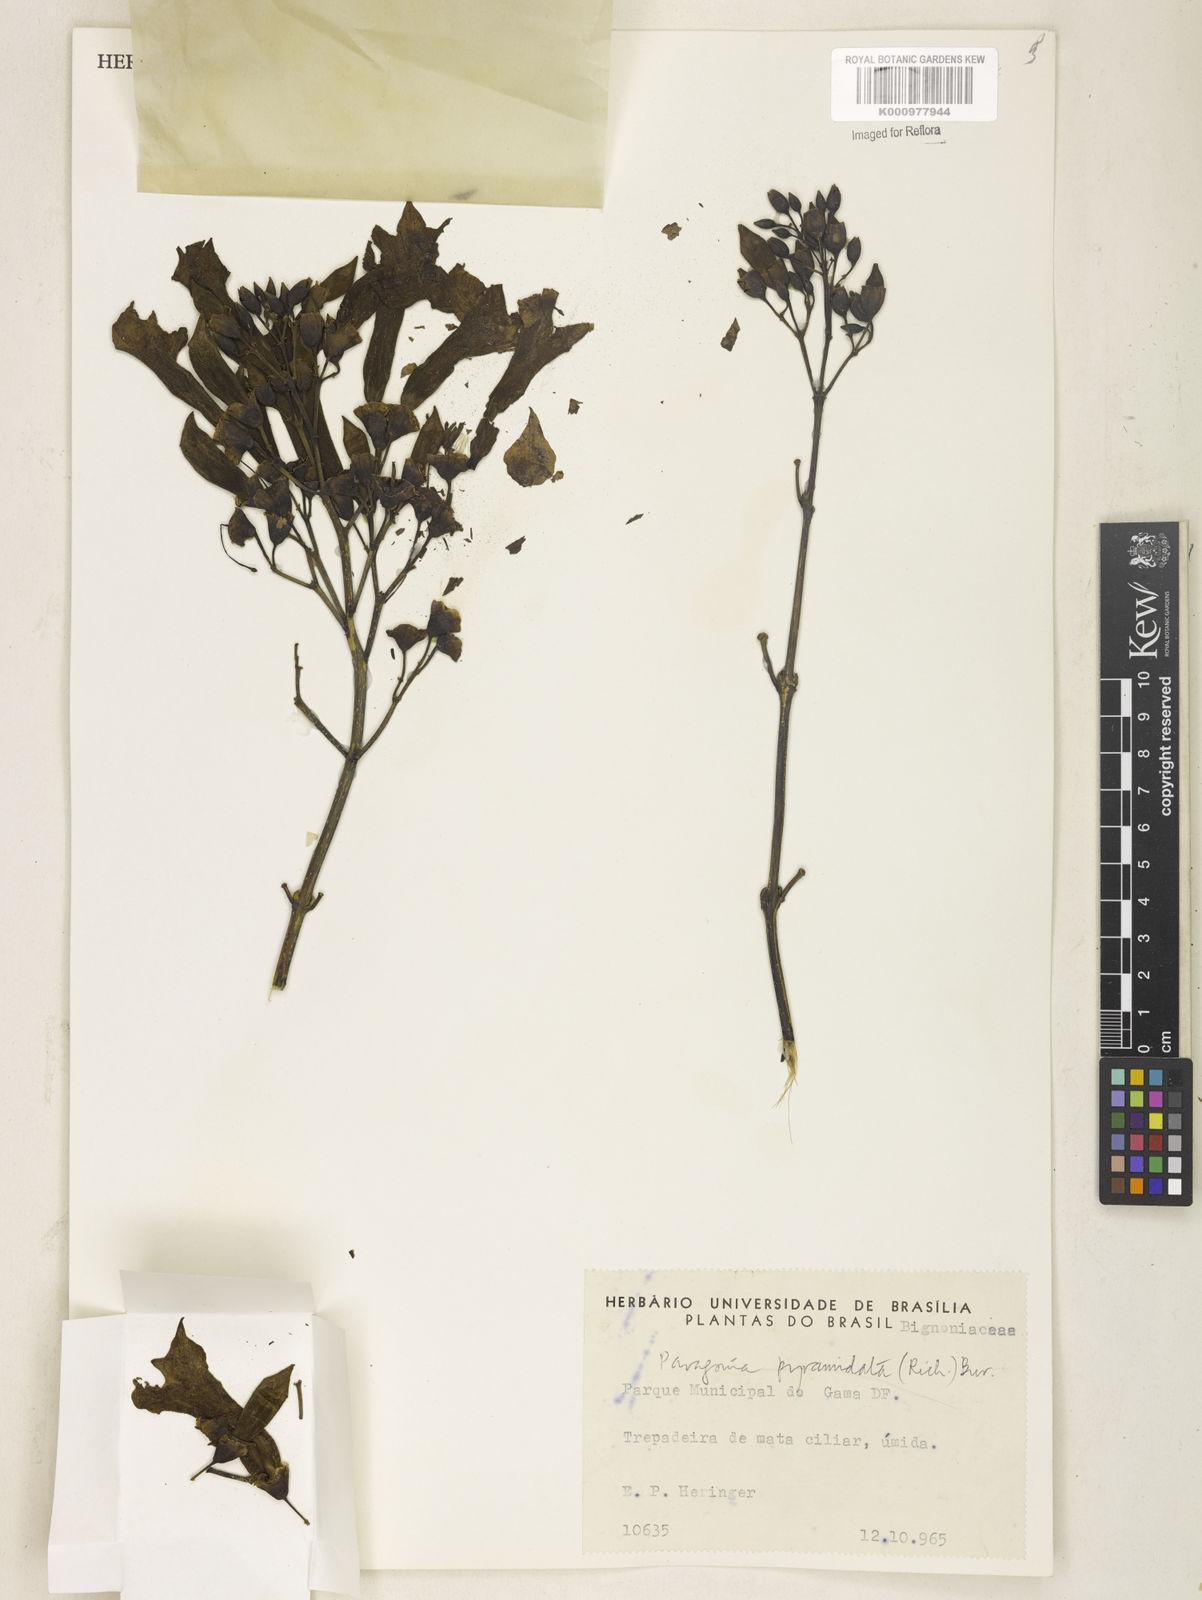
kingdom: Plantae
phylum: Tracheophyta
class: Magnoliopsida
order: Lamiales
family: Bignoniaceae
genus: Tanaecium
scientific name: Tanaecium pyramidatum
